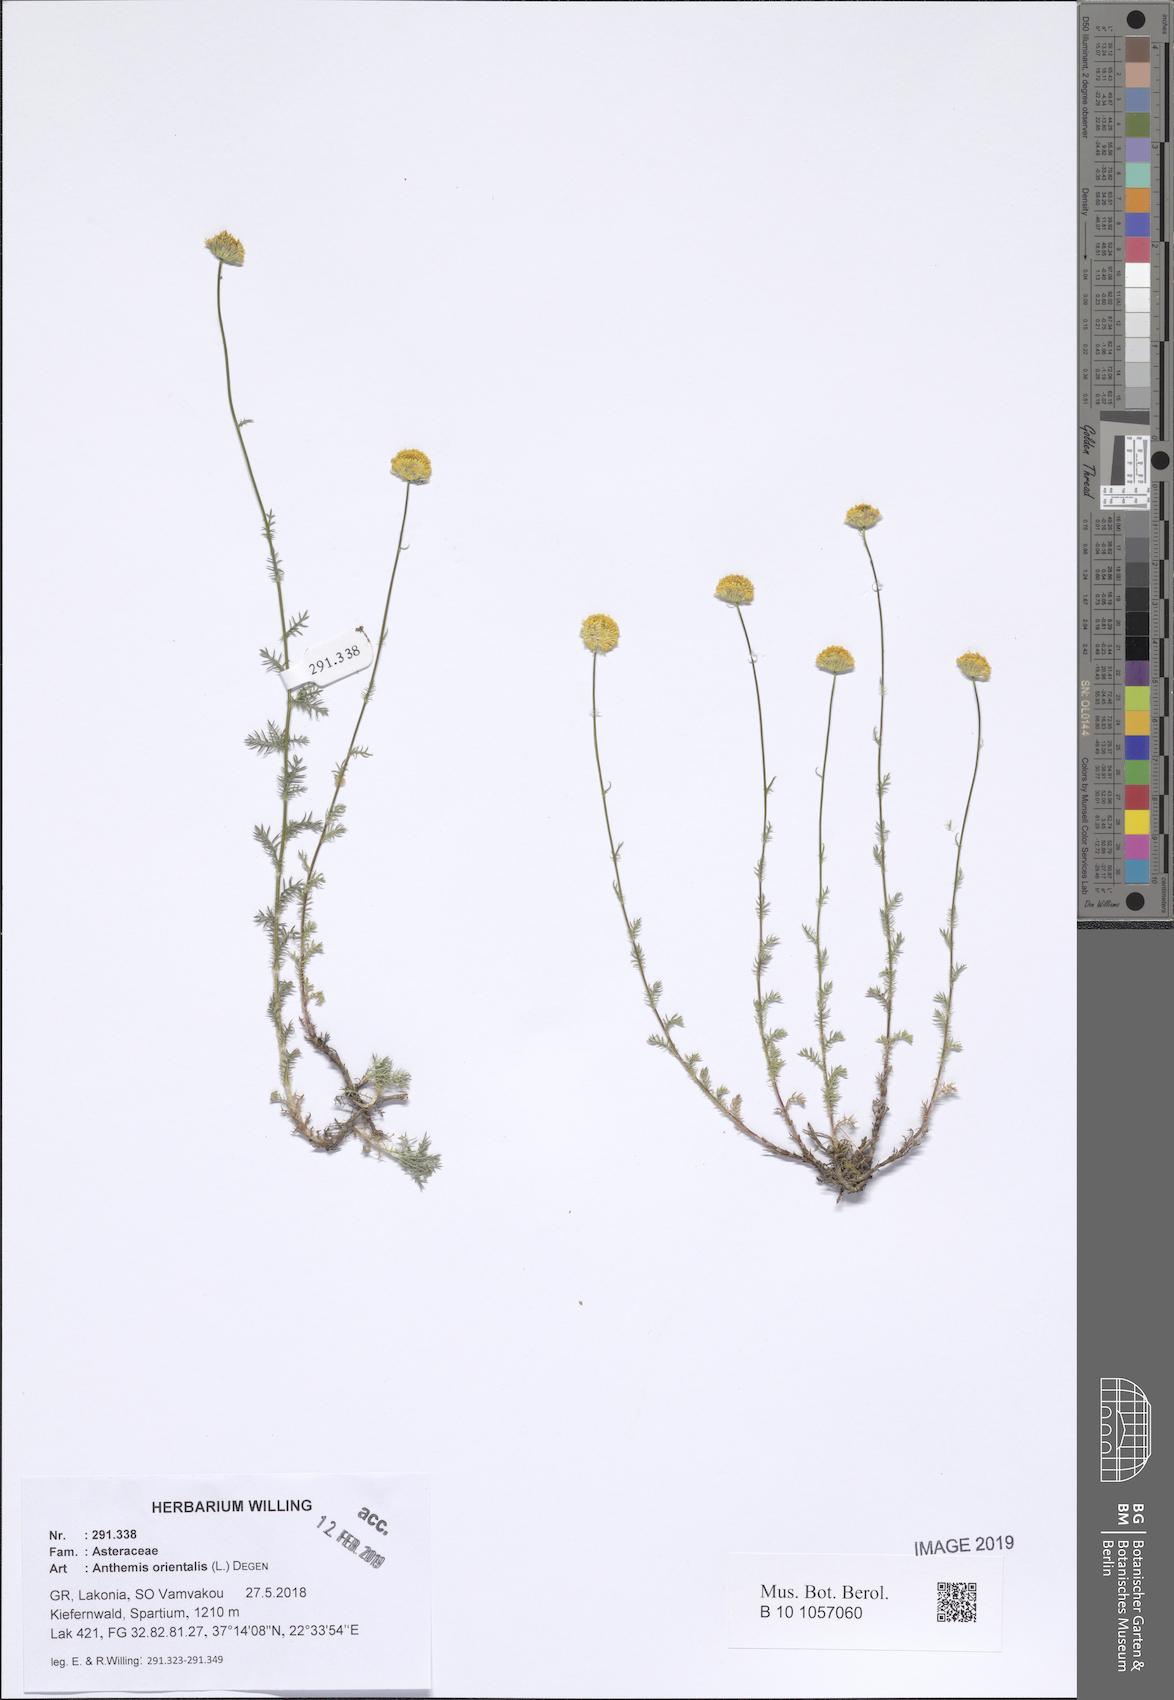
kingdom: Plantae
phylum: Tracheophyta
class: Magnoliopsida
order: Asterales
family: Asteraceae
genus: Anthemis
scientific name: Anthemis orientalis
